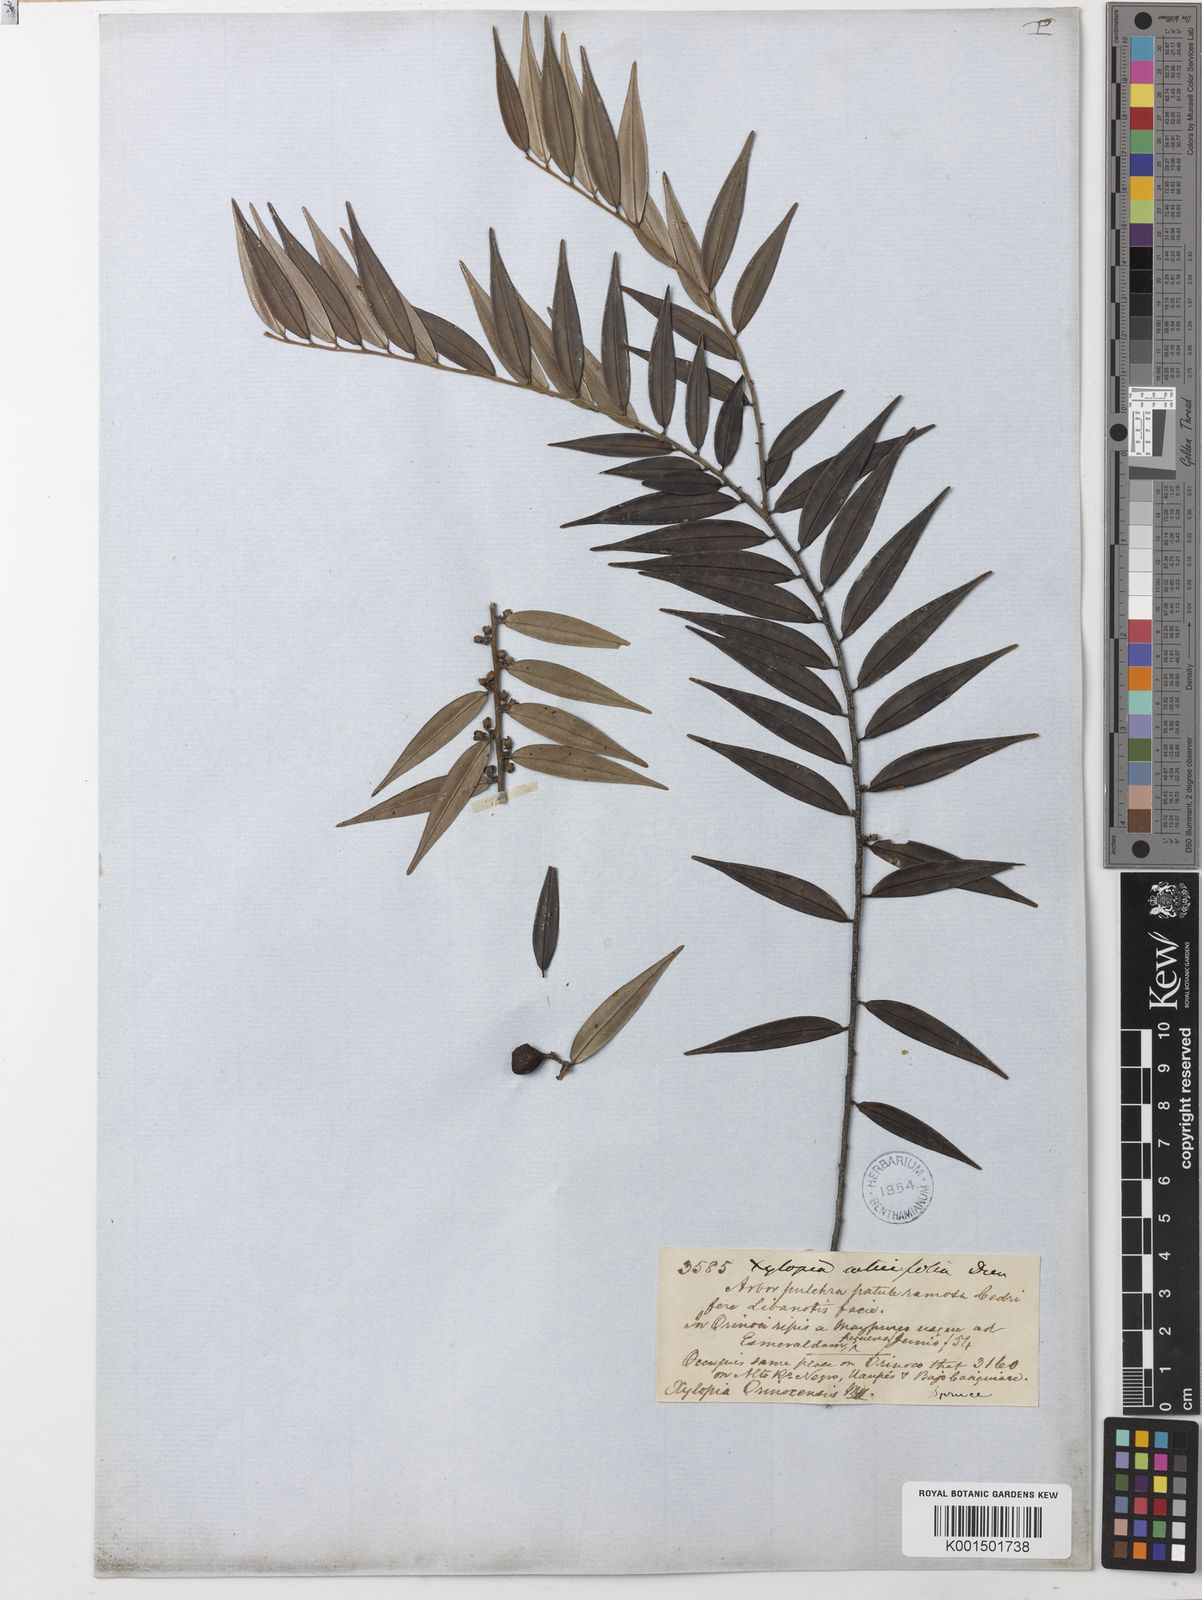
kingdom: Plantae
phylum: Tracheophyta
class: Magnoliopsida
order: Magnoliales
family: Annonaceae
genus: Xylopia
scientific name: Xylopia discreta
